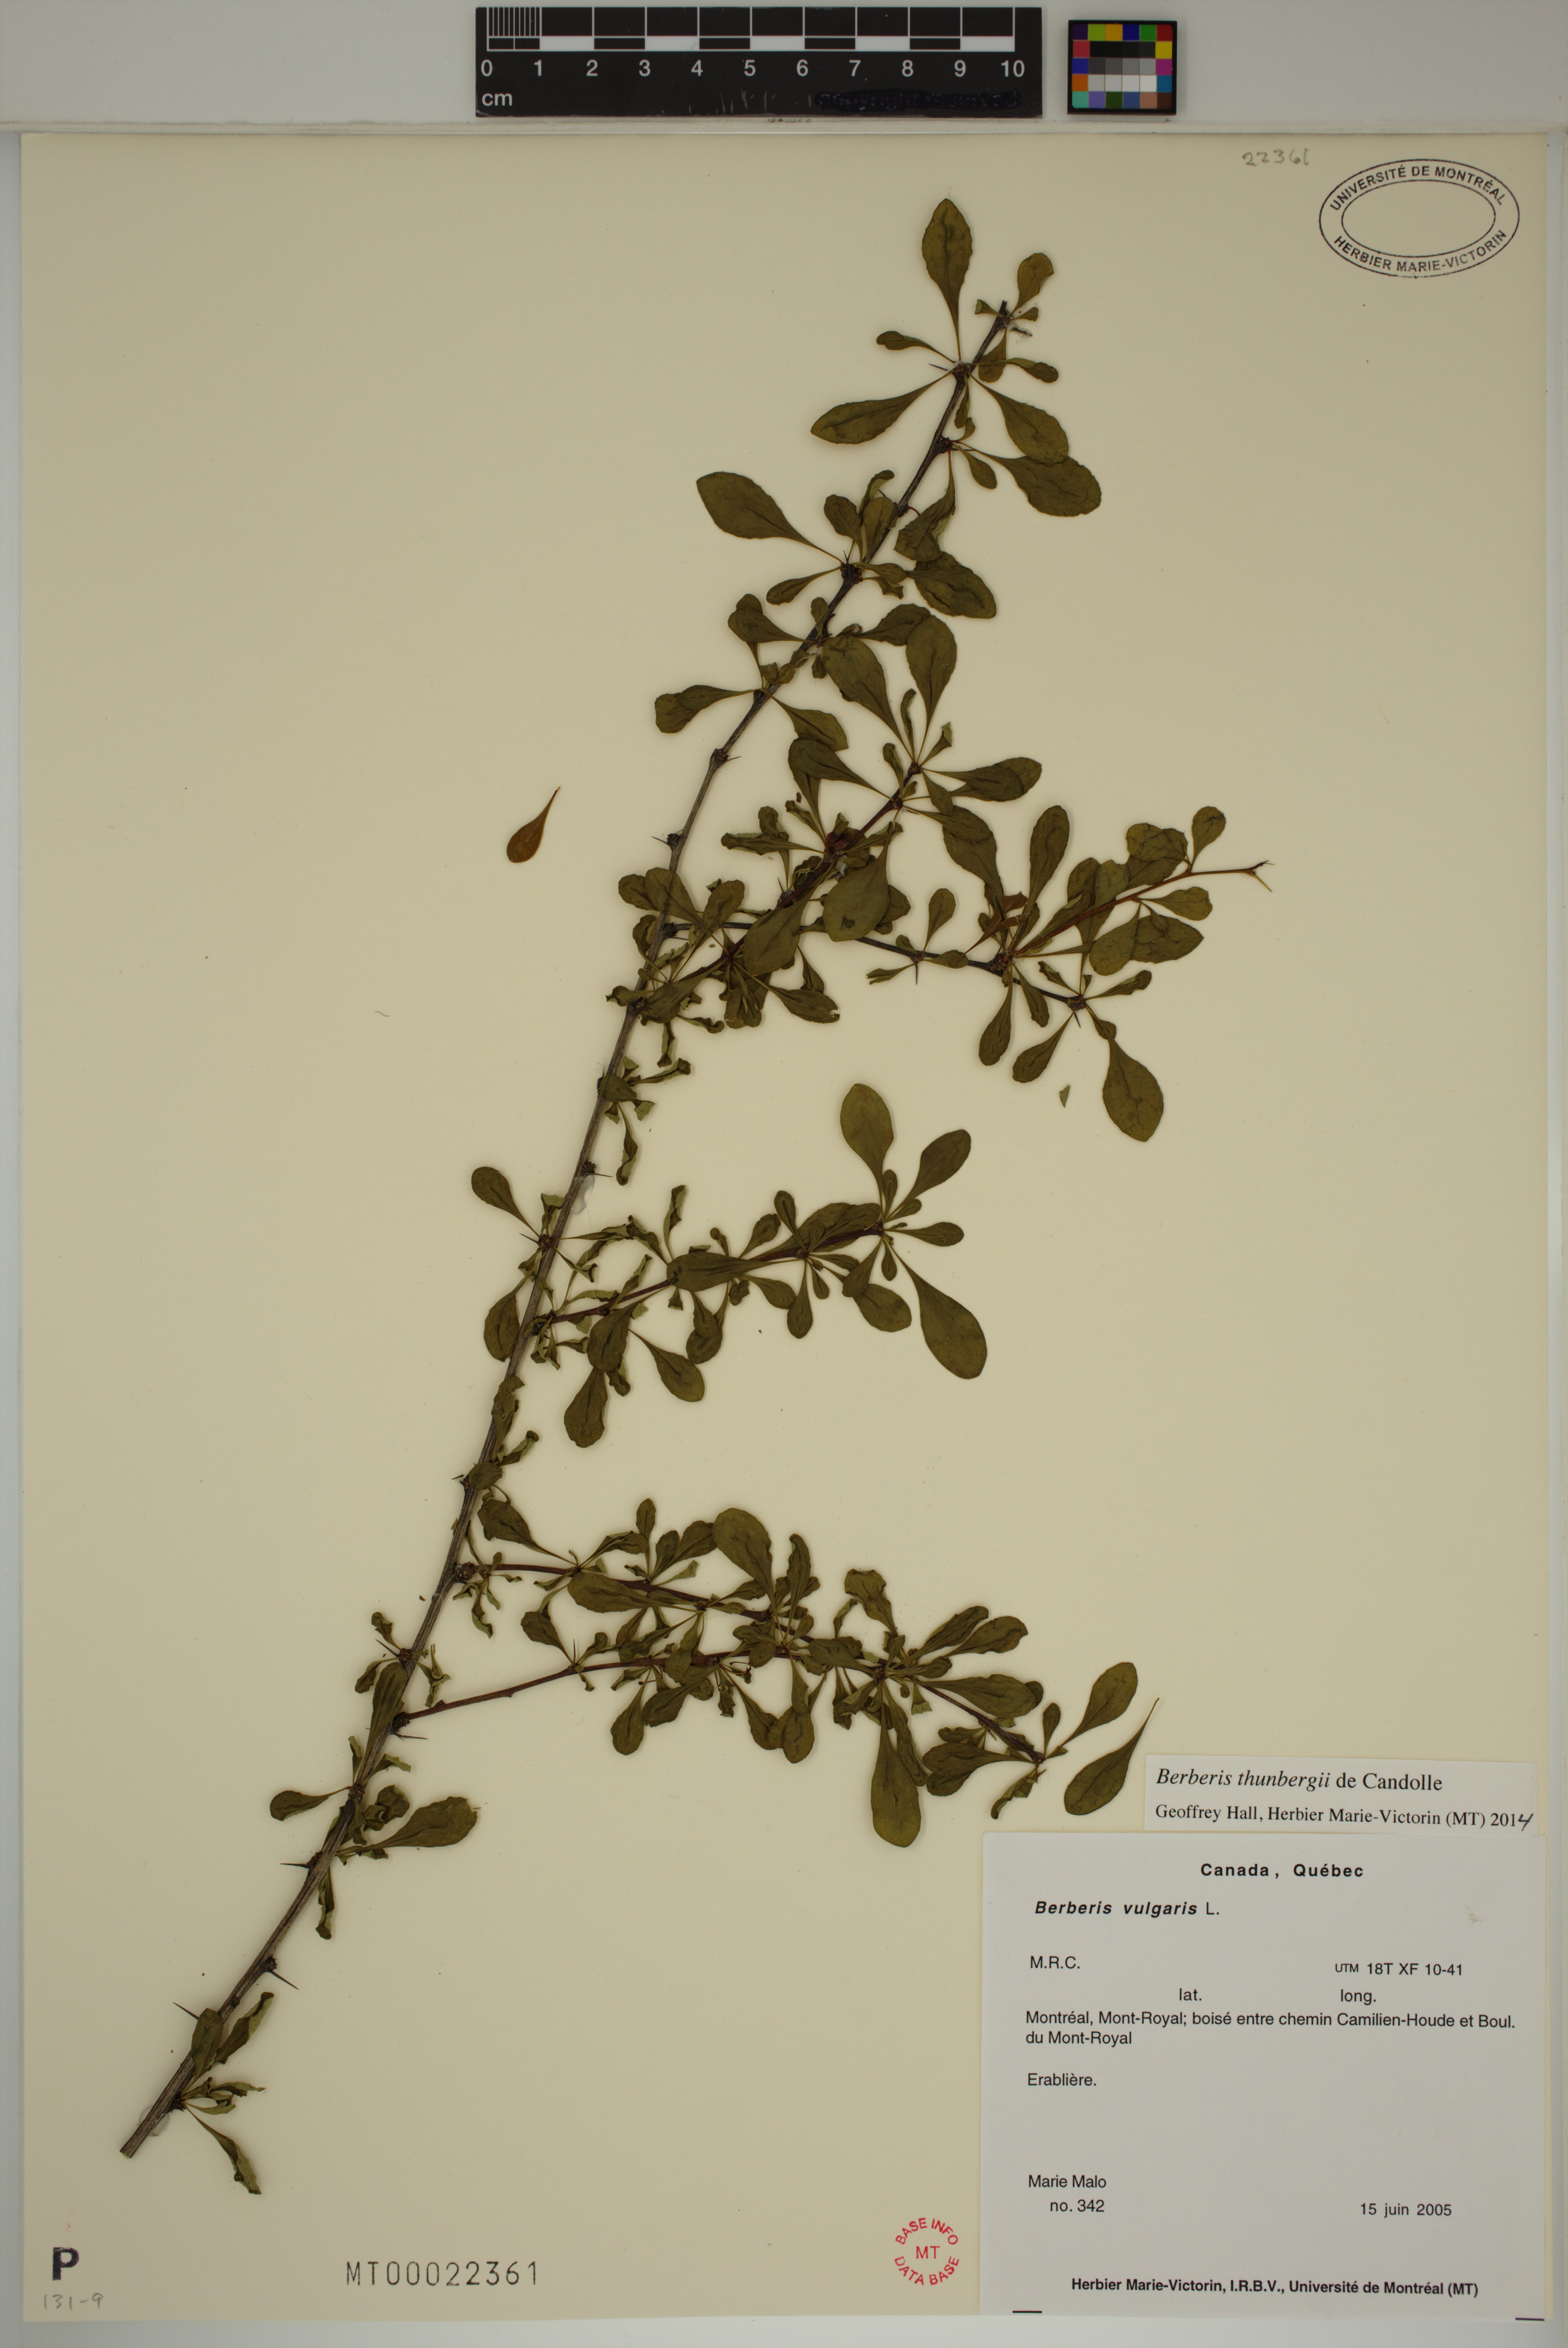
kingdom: Plantae
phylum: Tracheophyta
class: Magnoliopsida
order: Ranunculales
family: Berberidaceae
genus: Berberis
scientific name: Berberis thunbergii
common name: Japanese barberry
